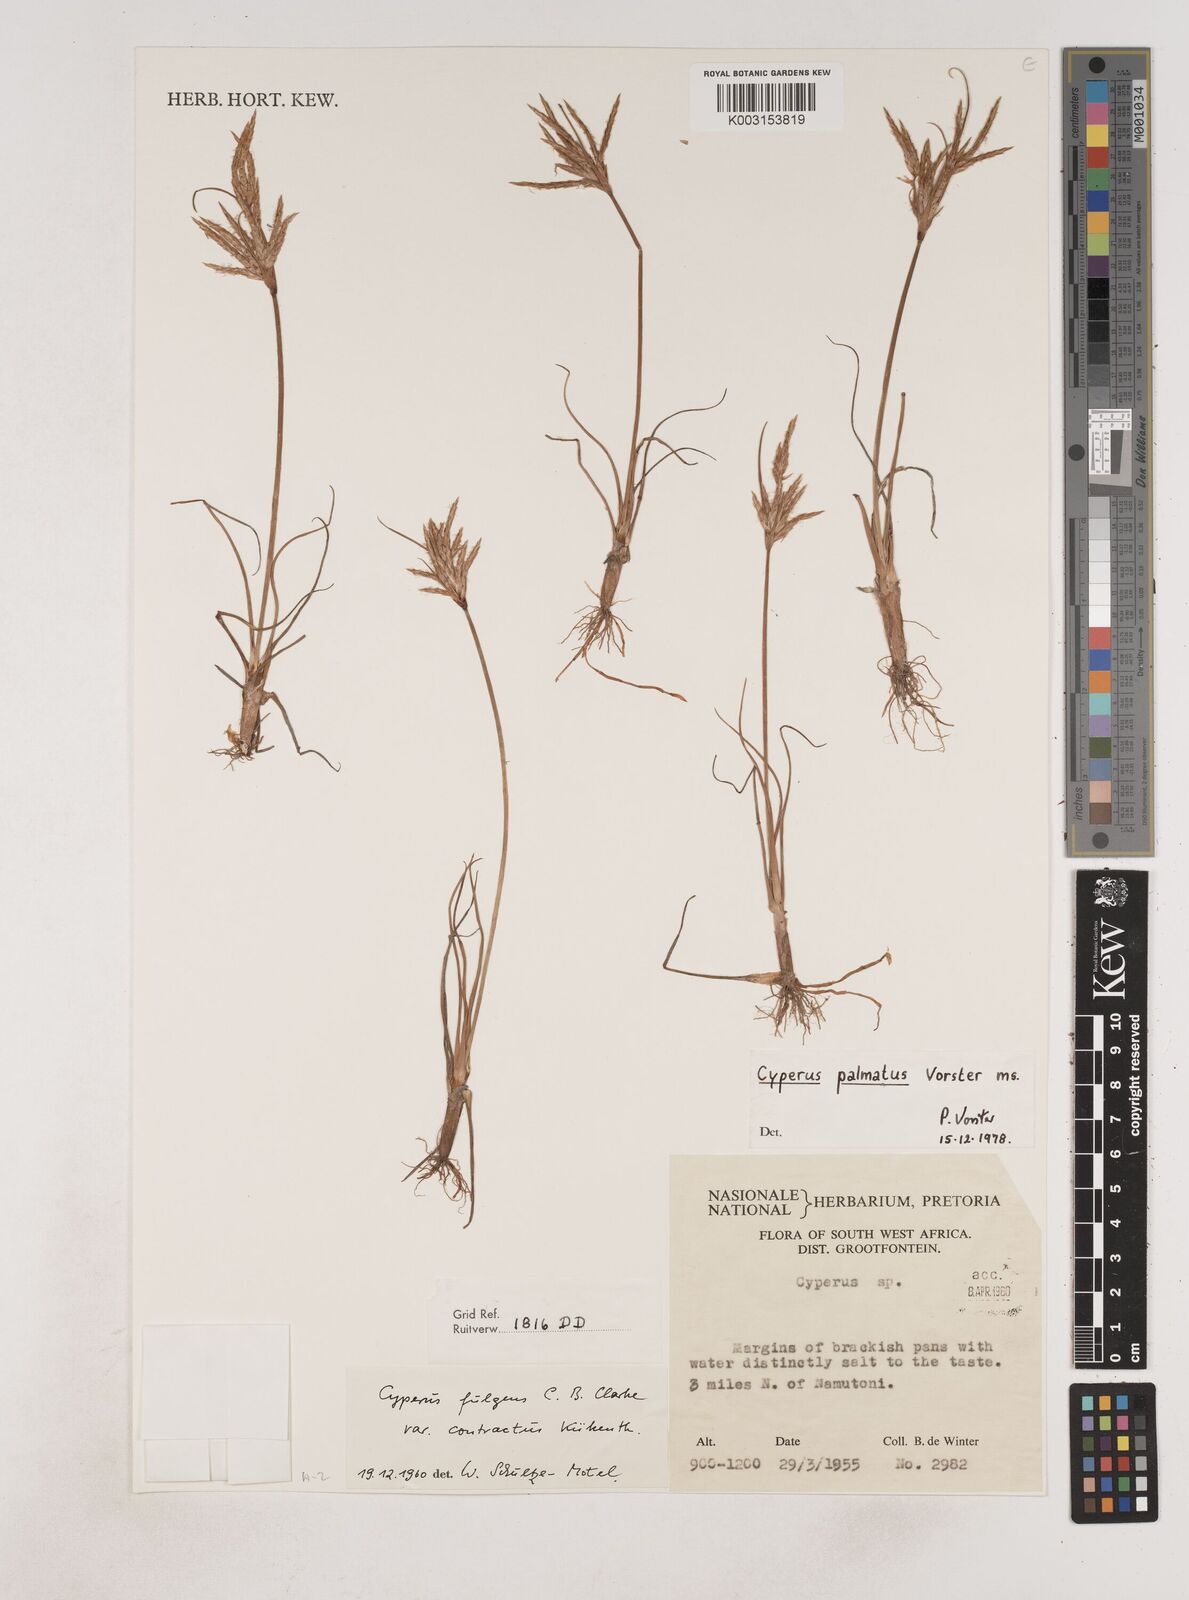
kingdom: Plantae
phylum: Tracheophyta
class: Liliopsida
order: Poales
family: Cyperaceae
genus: Cyperus
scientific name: Cyperus
